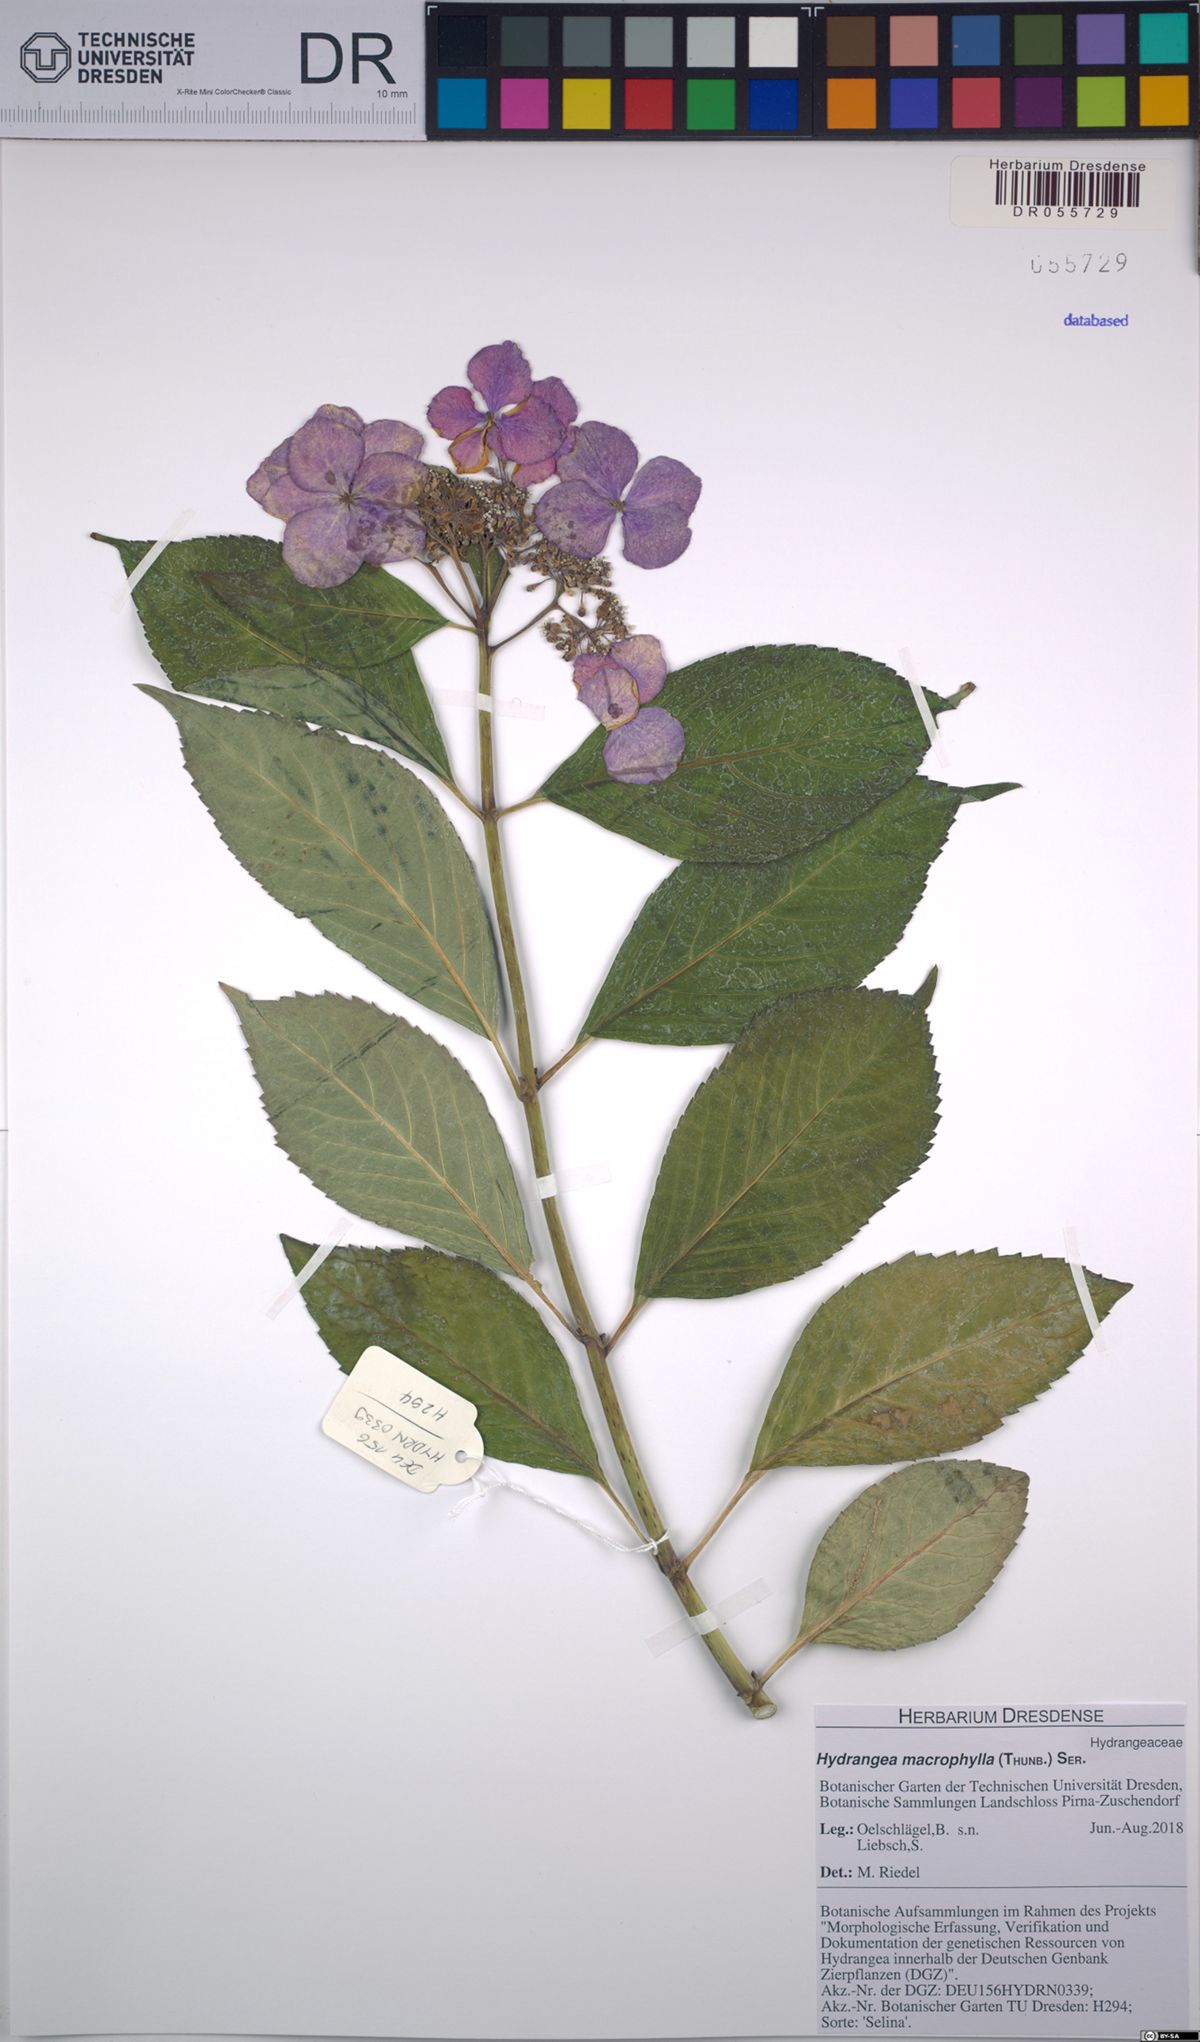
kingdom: Plantae
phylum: Tracheophyta
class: Magnoliopsida
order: Cornales
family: Hydrangeaceae
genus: Hydrangea
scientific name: Hydrangea macrophylla
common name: Hydrangea
